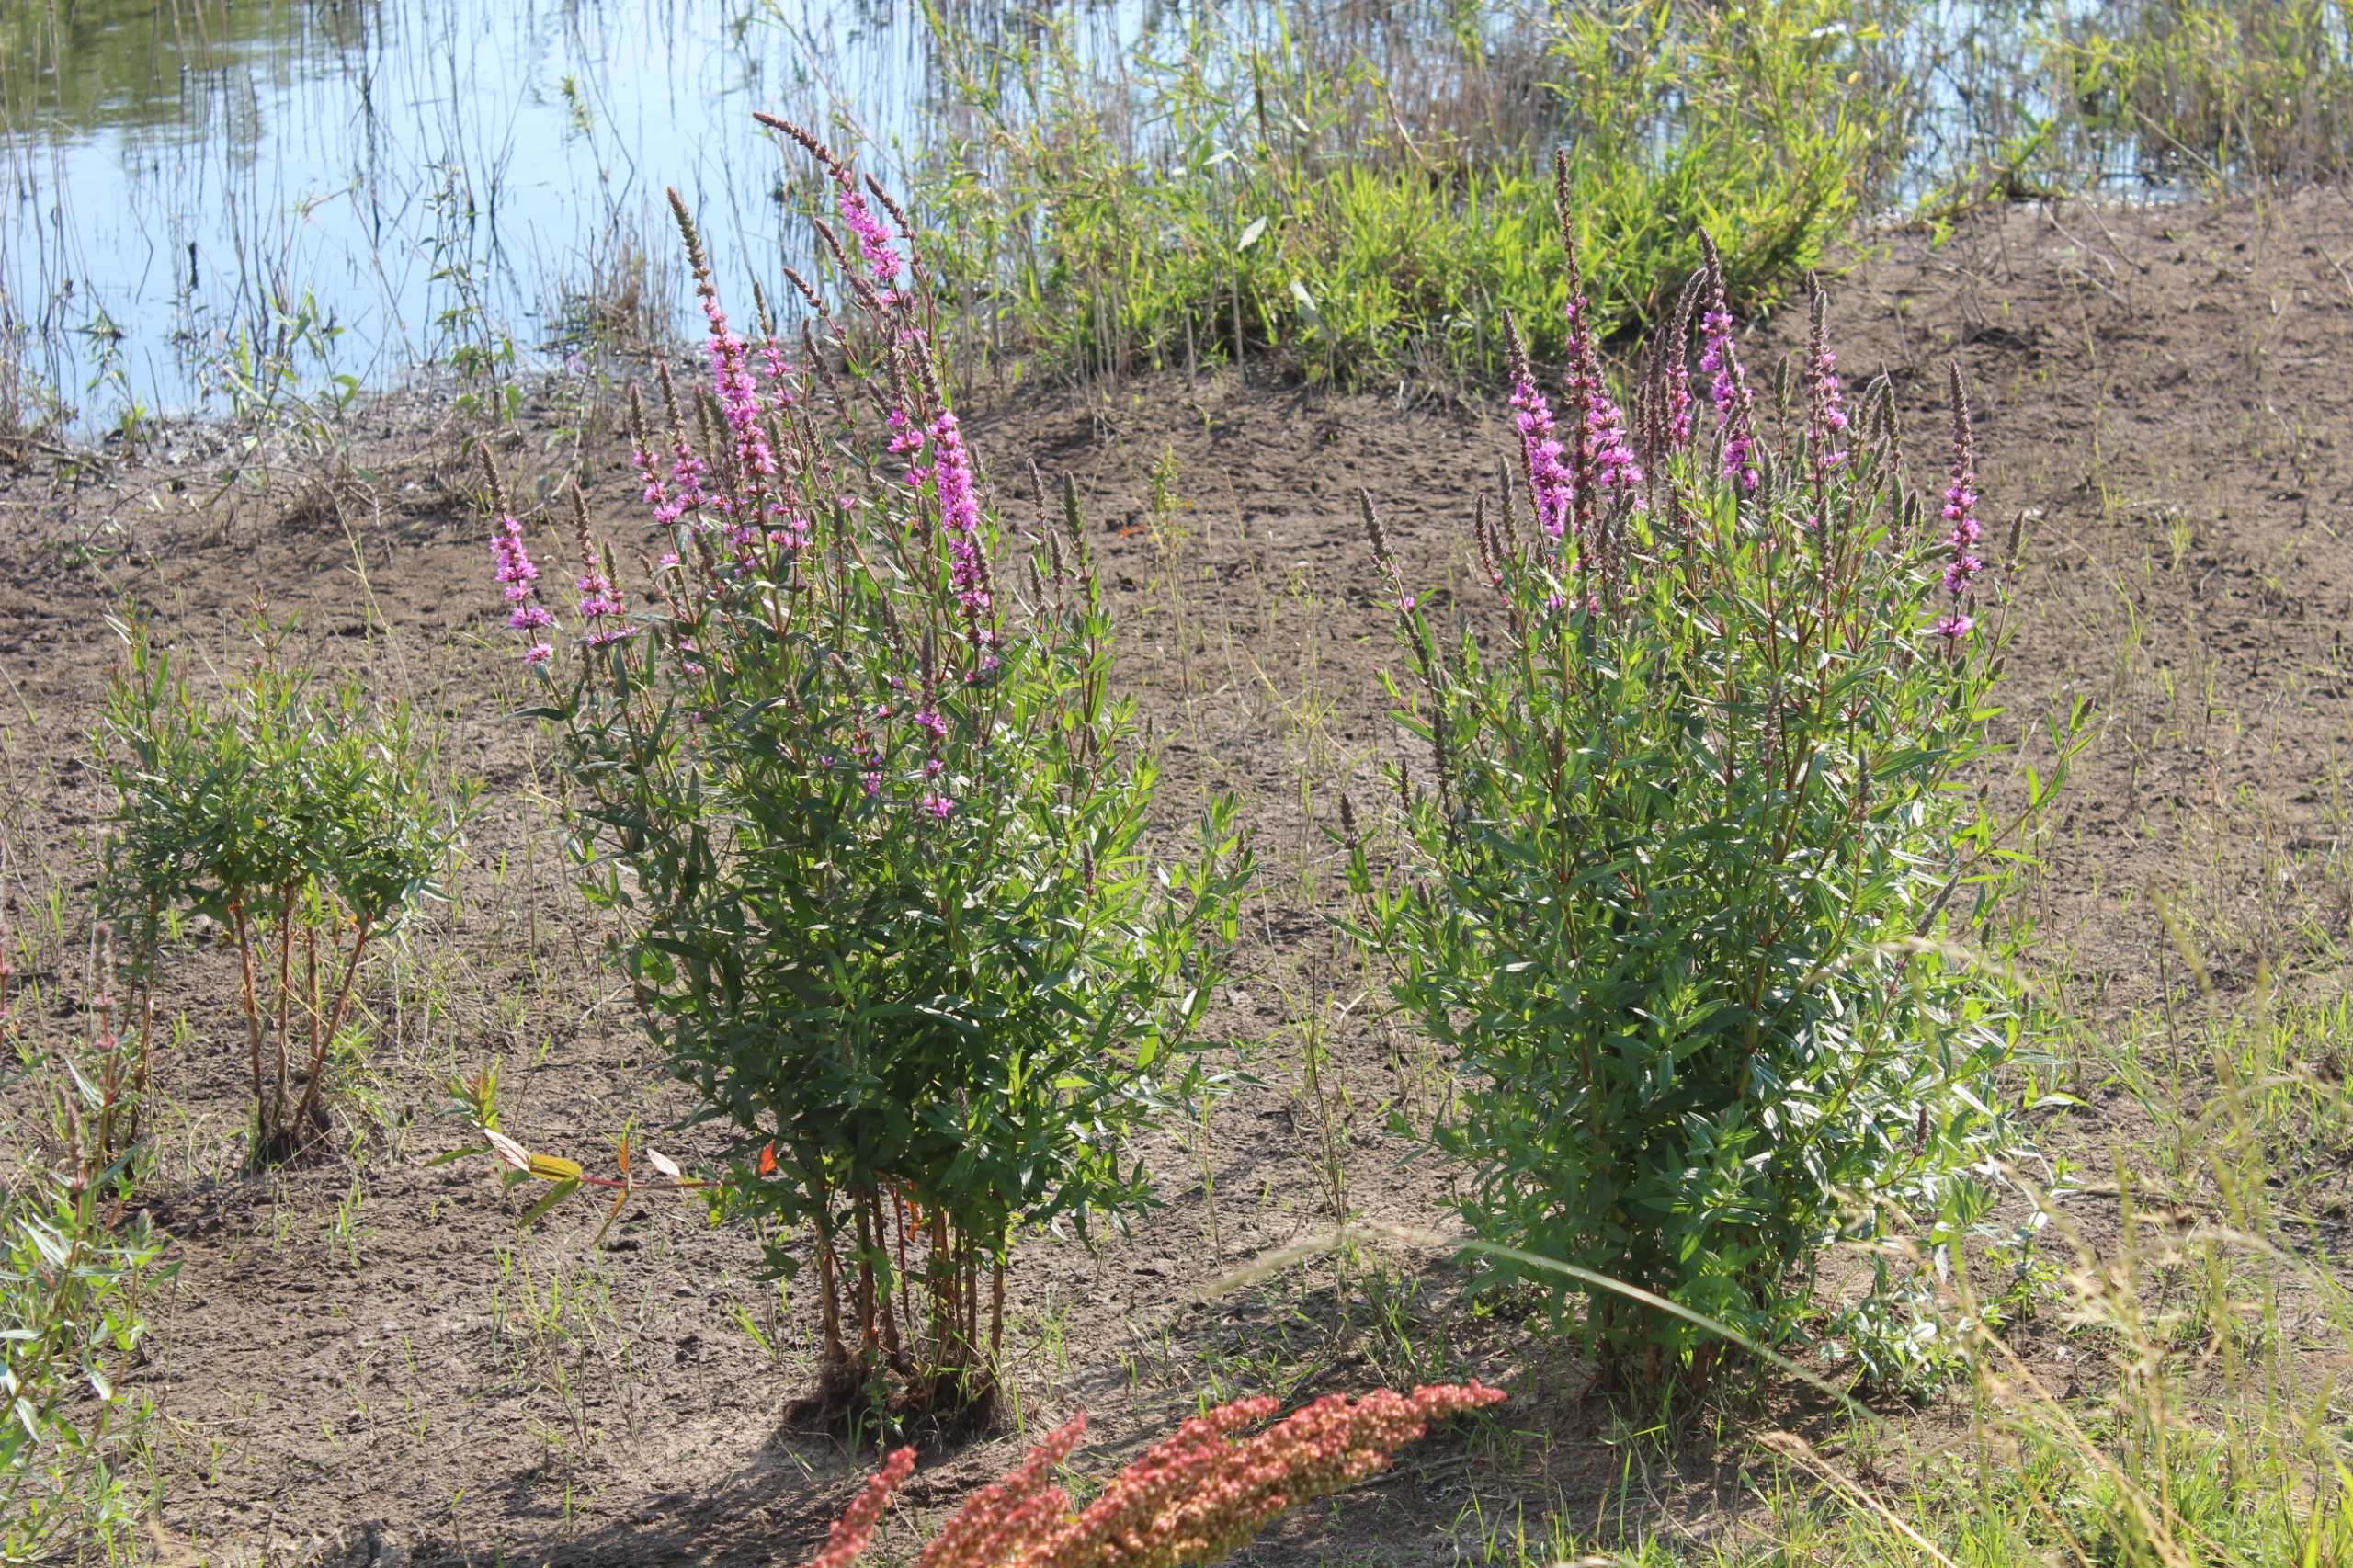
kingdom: Plantae
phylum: Tracheophyta
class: Magnoliopsida
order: Myrtales
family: Lythraceae
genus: Lythrum
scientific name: Lythrum salicaria
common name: Kattehale
